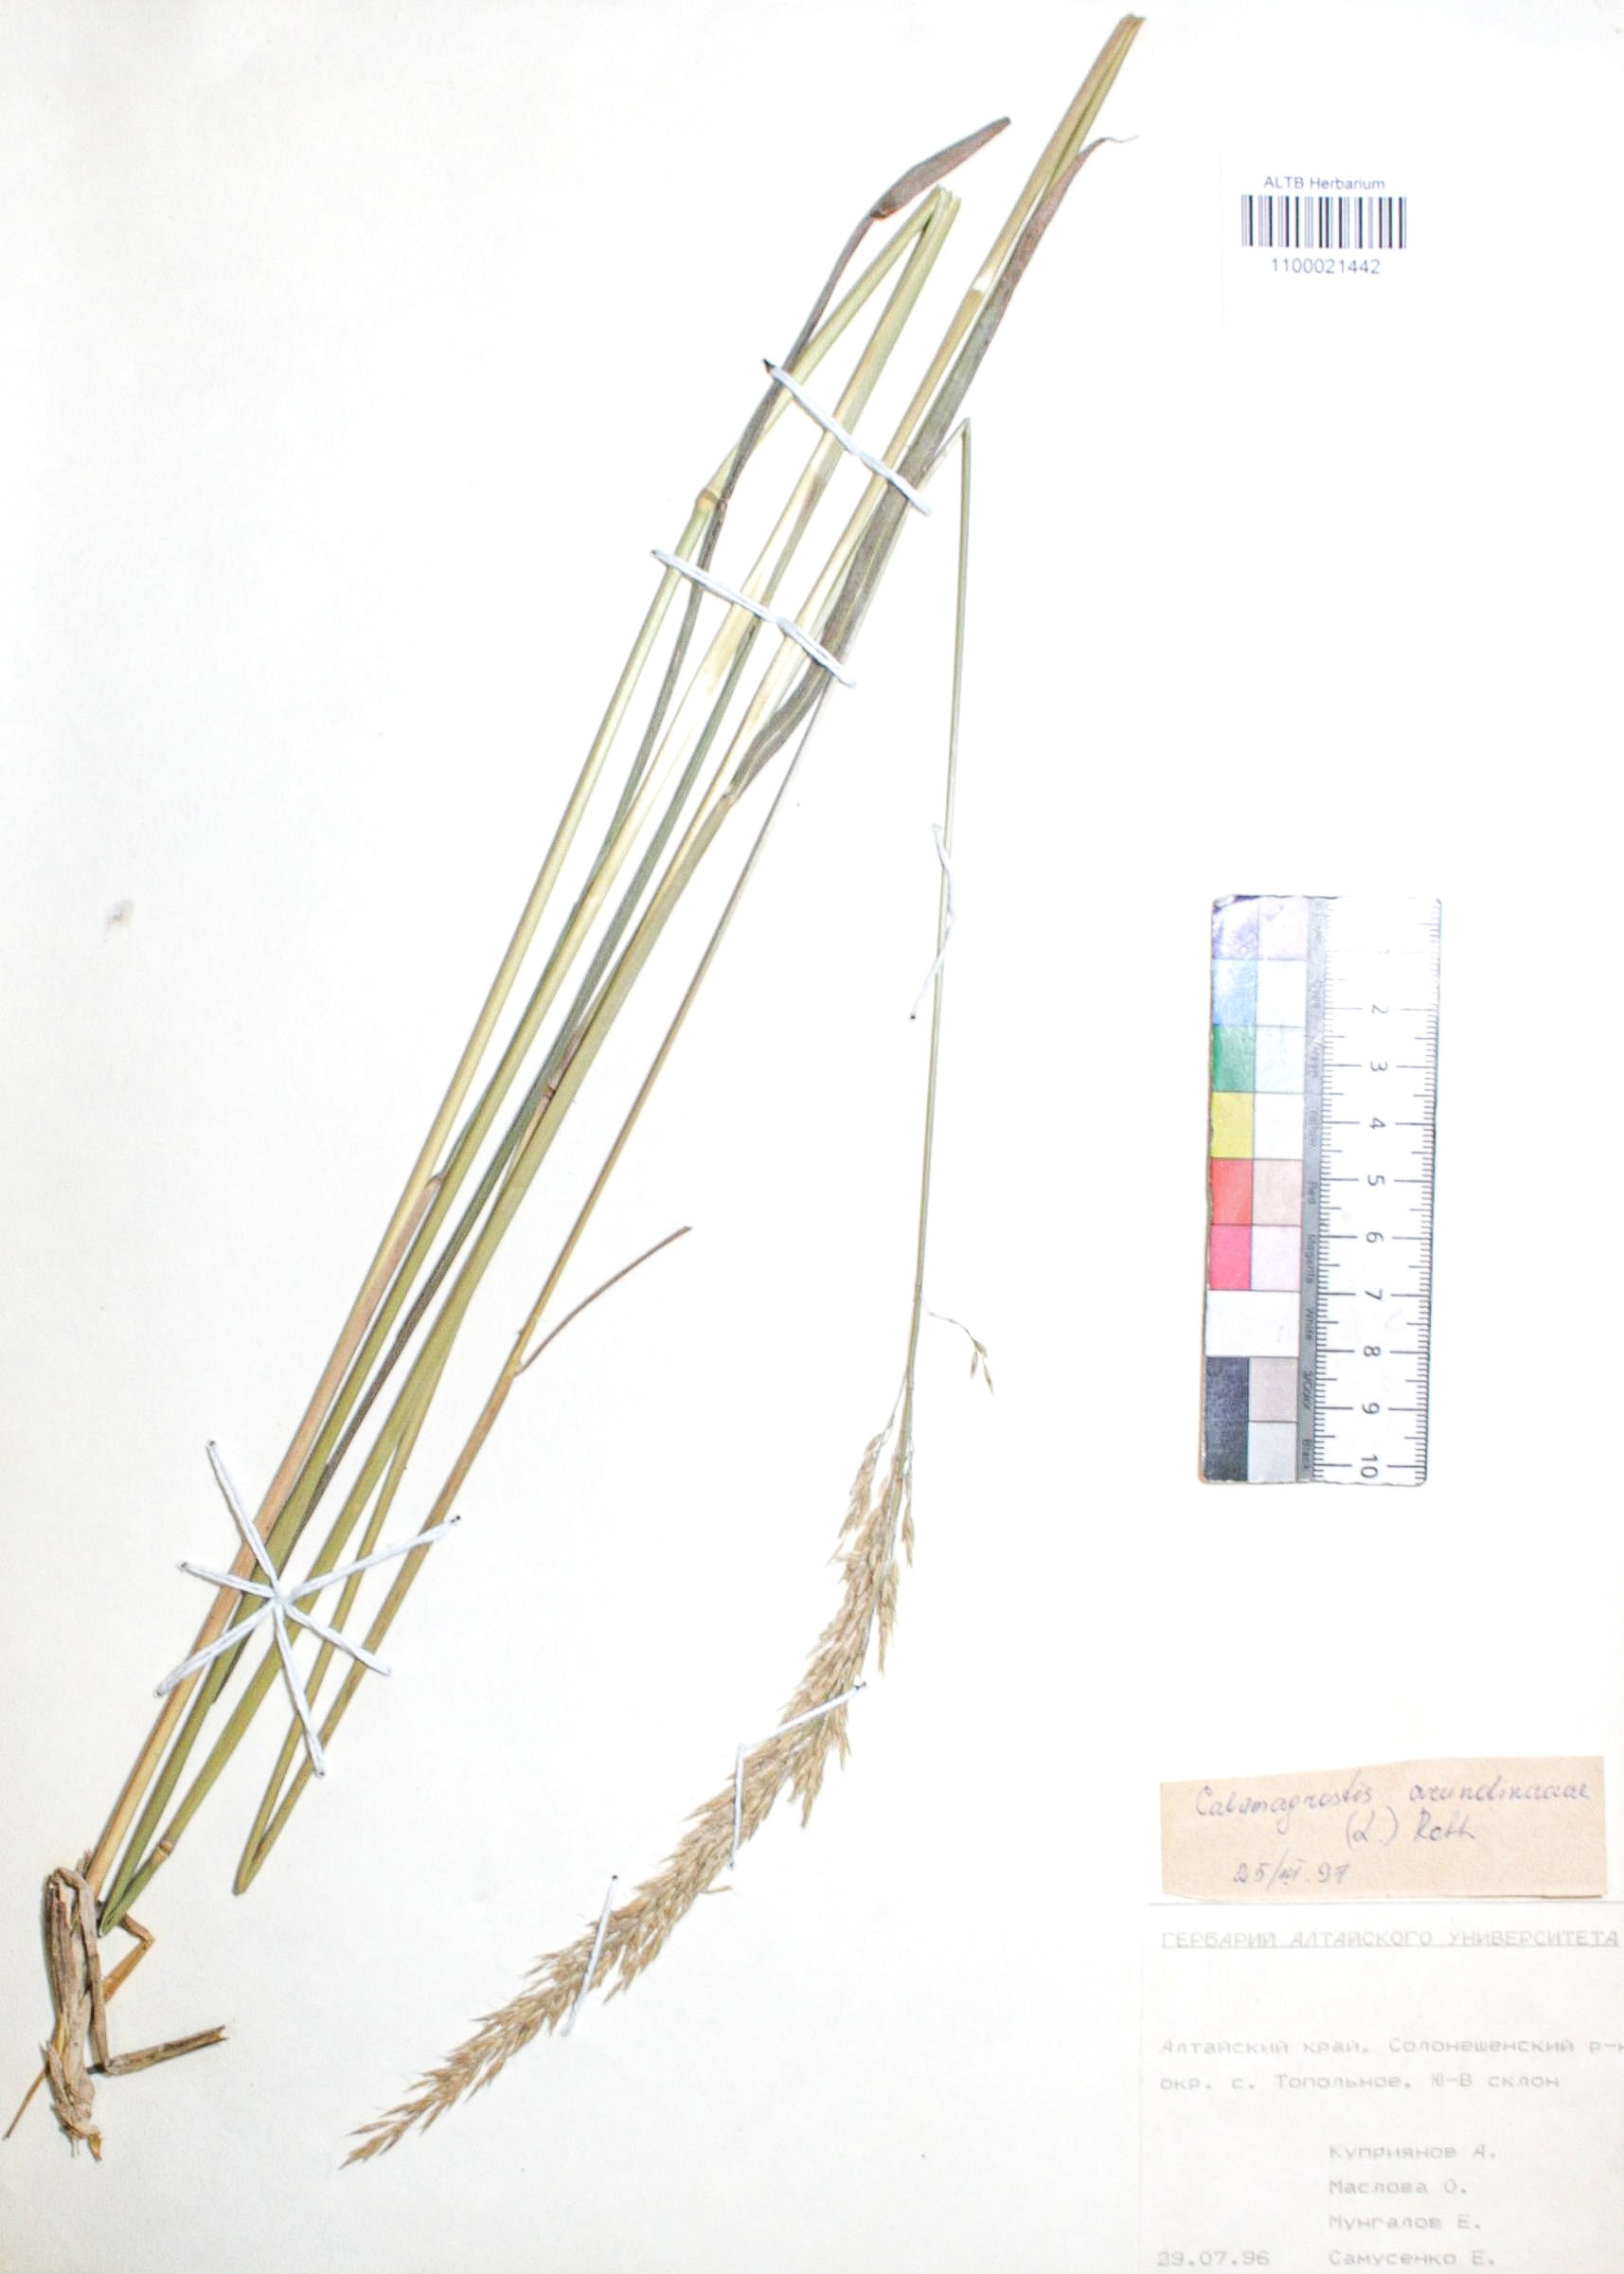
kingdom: Plantae
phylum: Tracheophyta
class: Liliopsida
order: Poales
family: Poaceae
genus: Calamagrostis
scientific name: Calamagrostis arundinacea
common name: Metskastik
